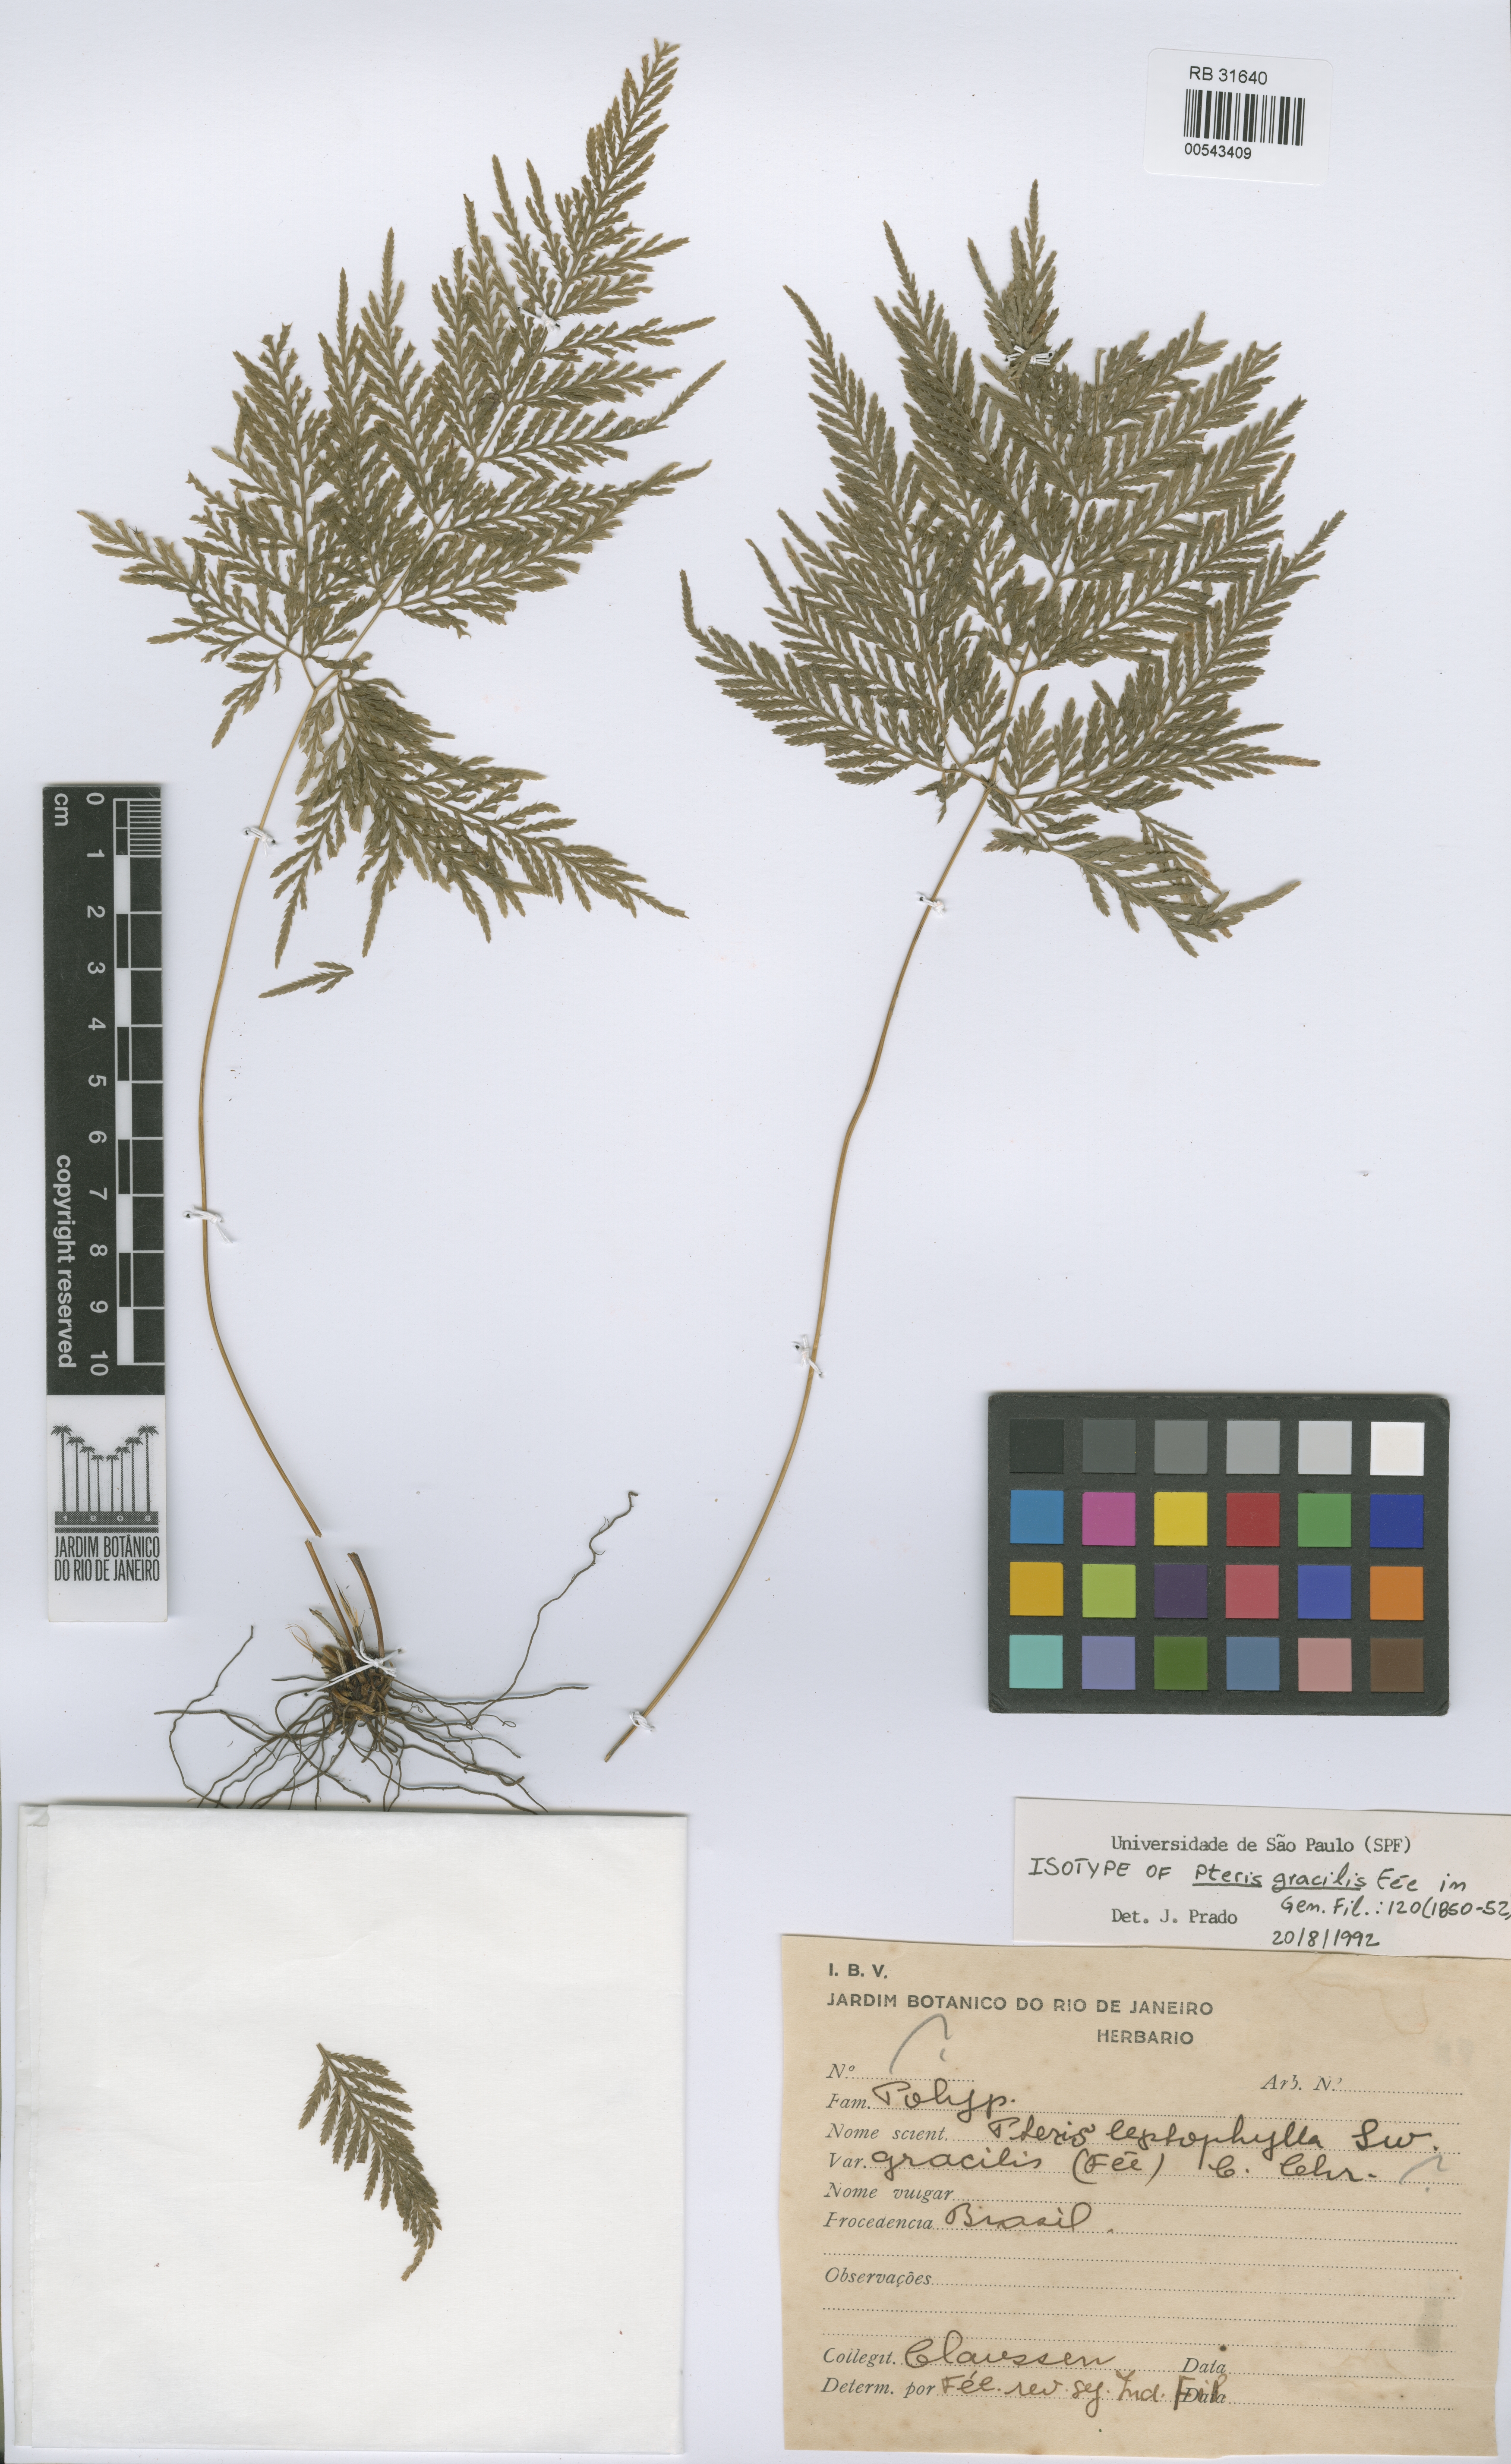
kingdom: Plantae
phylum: Tracheophyta
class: Polypodiopsida
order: Polypodiales
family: Pteridaceae
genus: Pteris
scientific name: Pteris congesta
